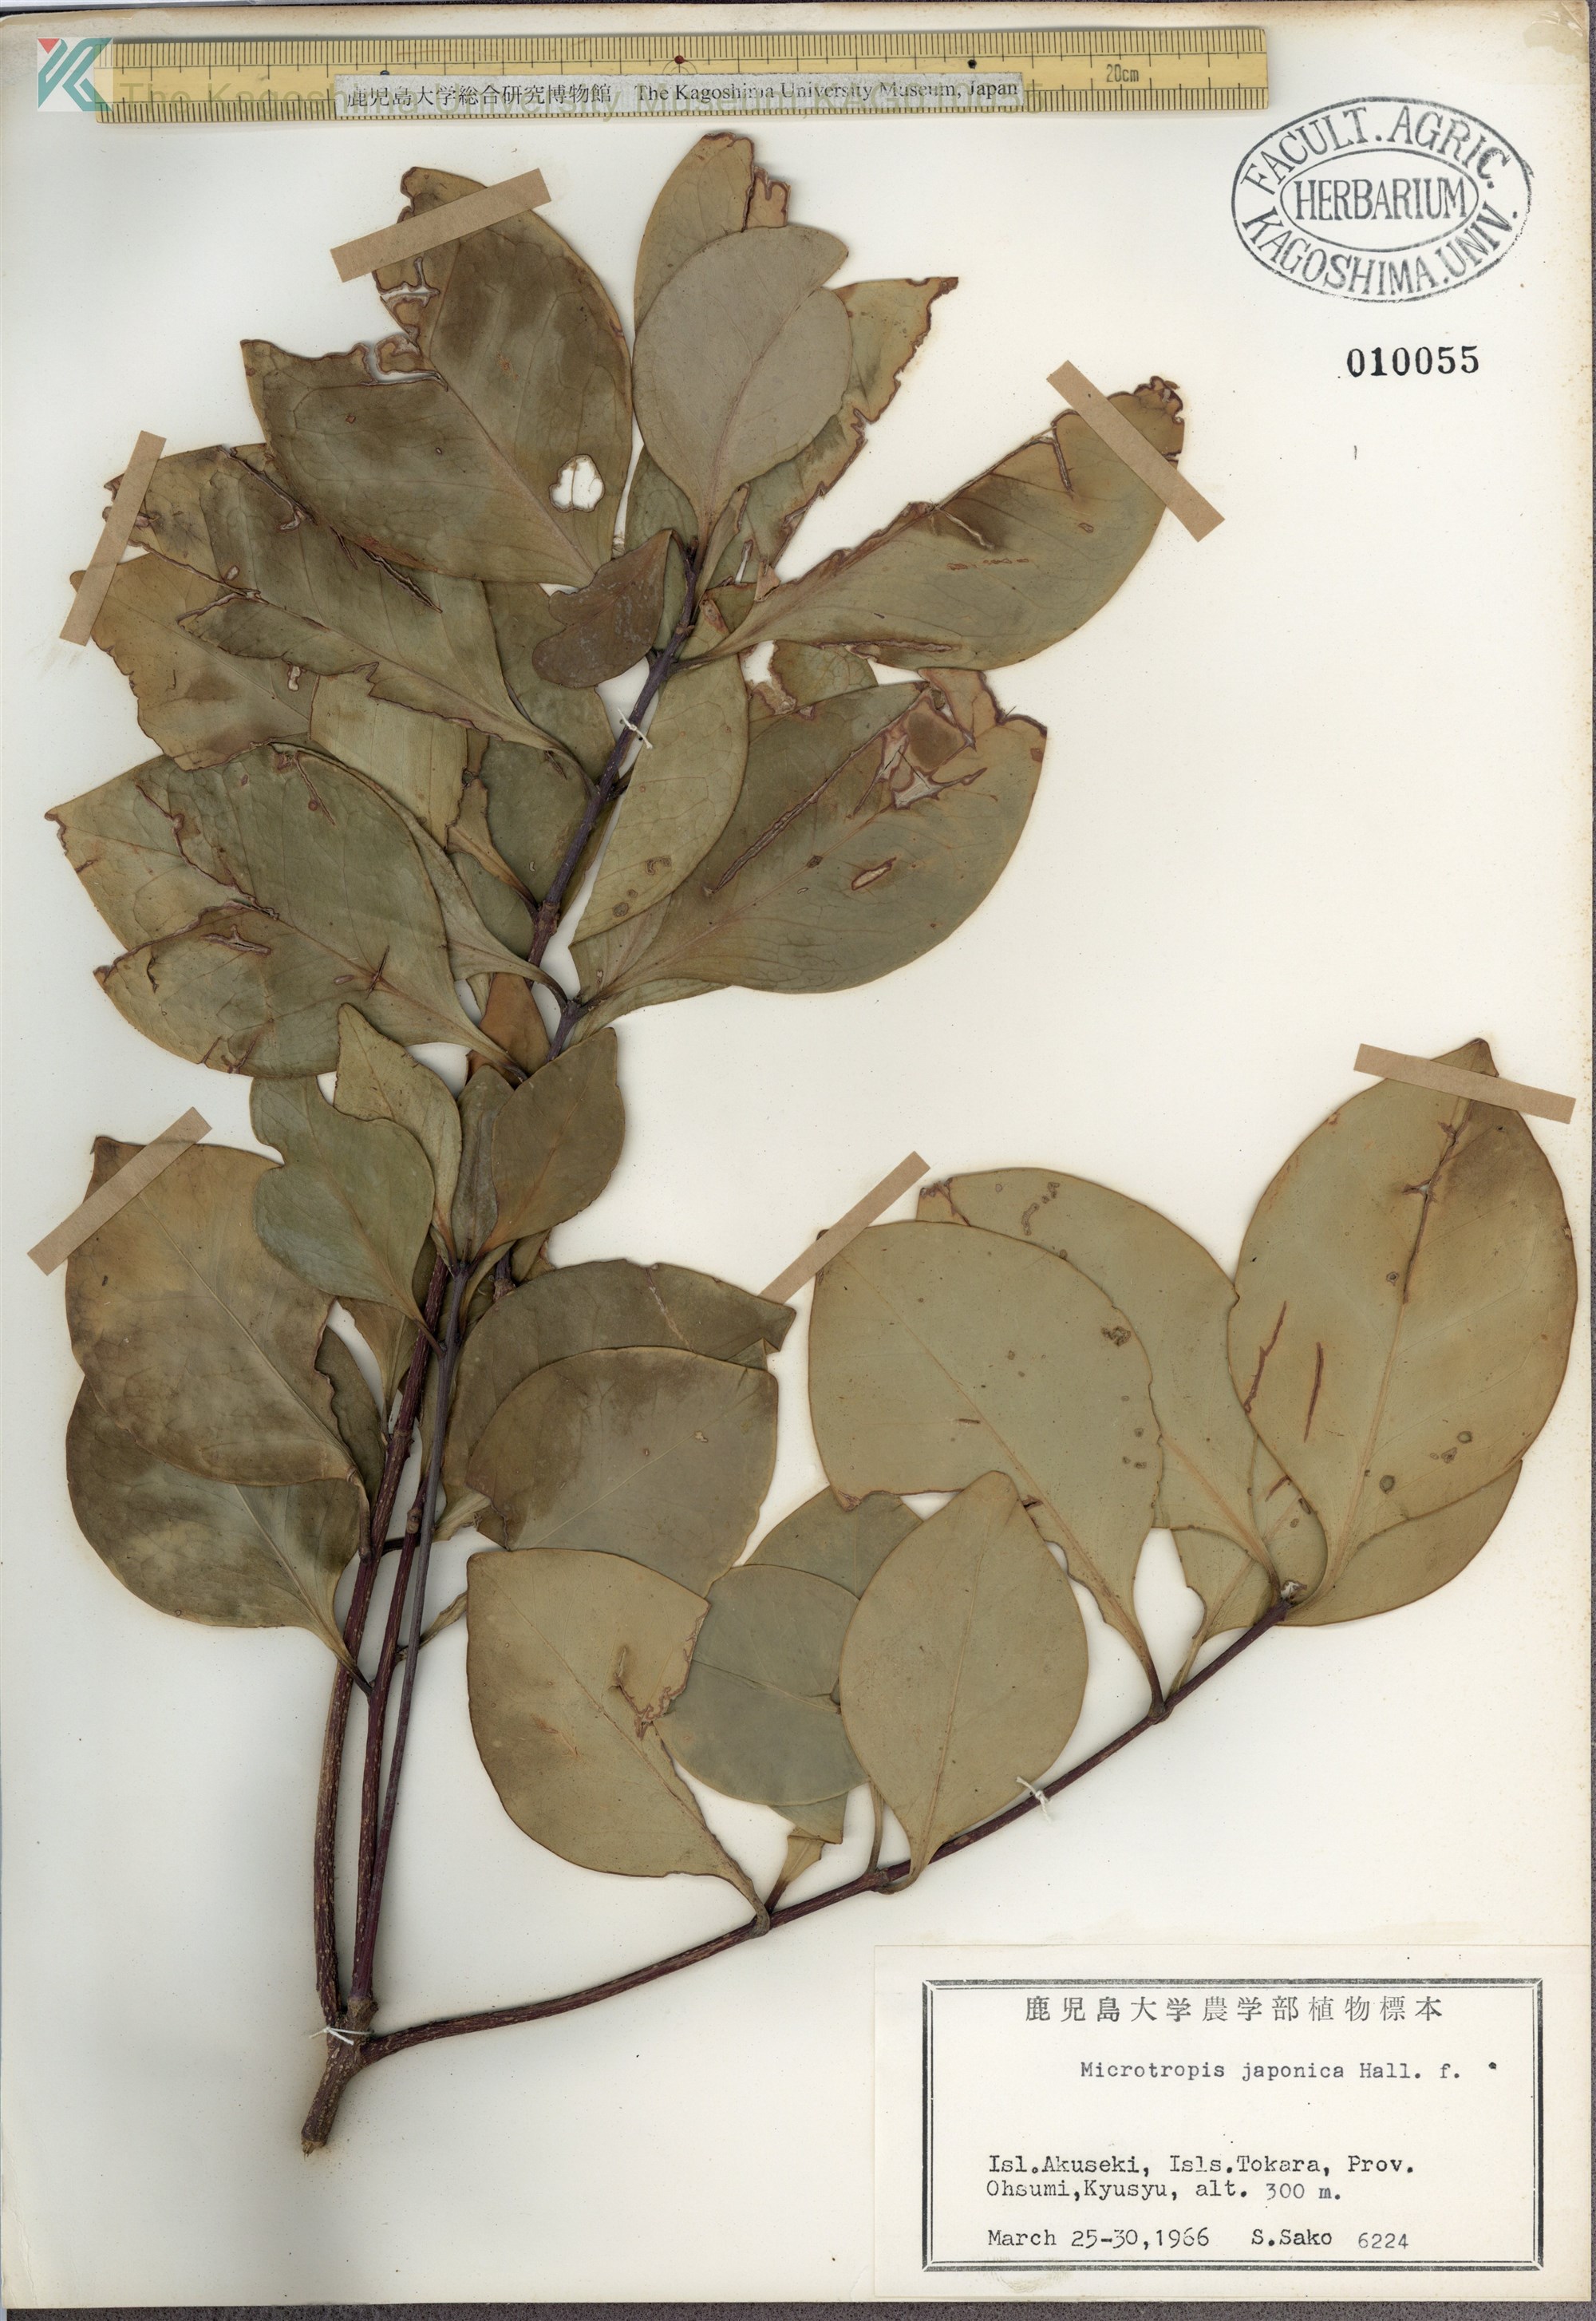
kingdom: Plantae
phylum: Tracheophyta
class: Magnoliopsida
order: Celastrales
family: Celastraceae
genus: Microtropis
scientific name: Microtropis japonica
